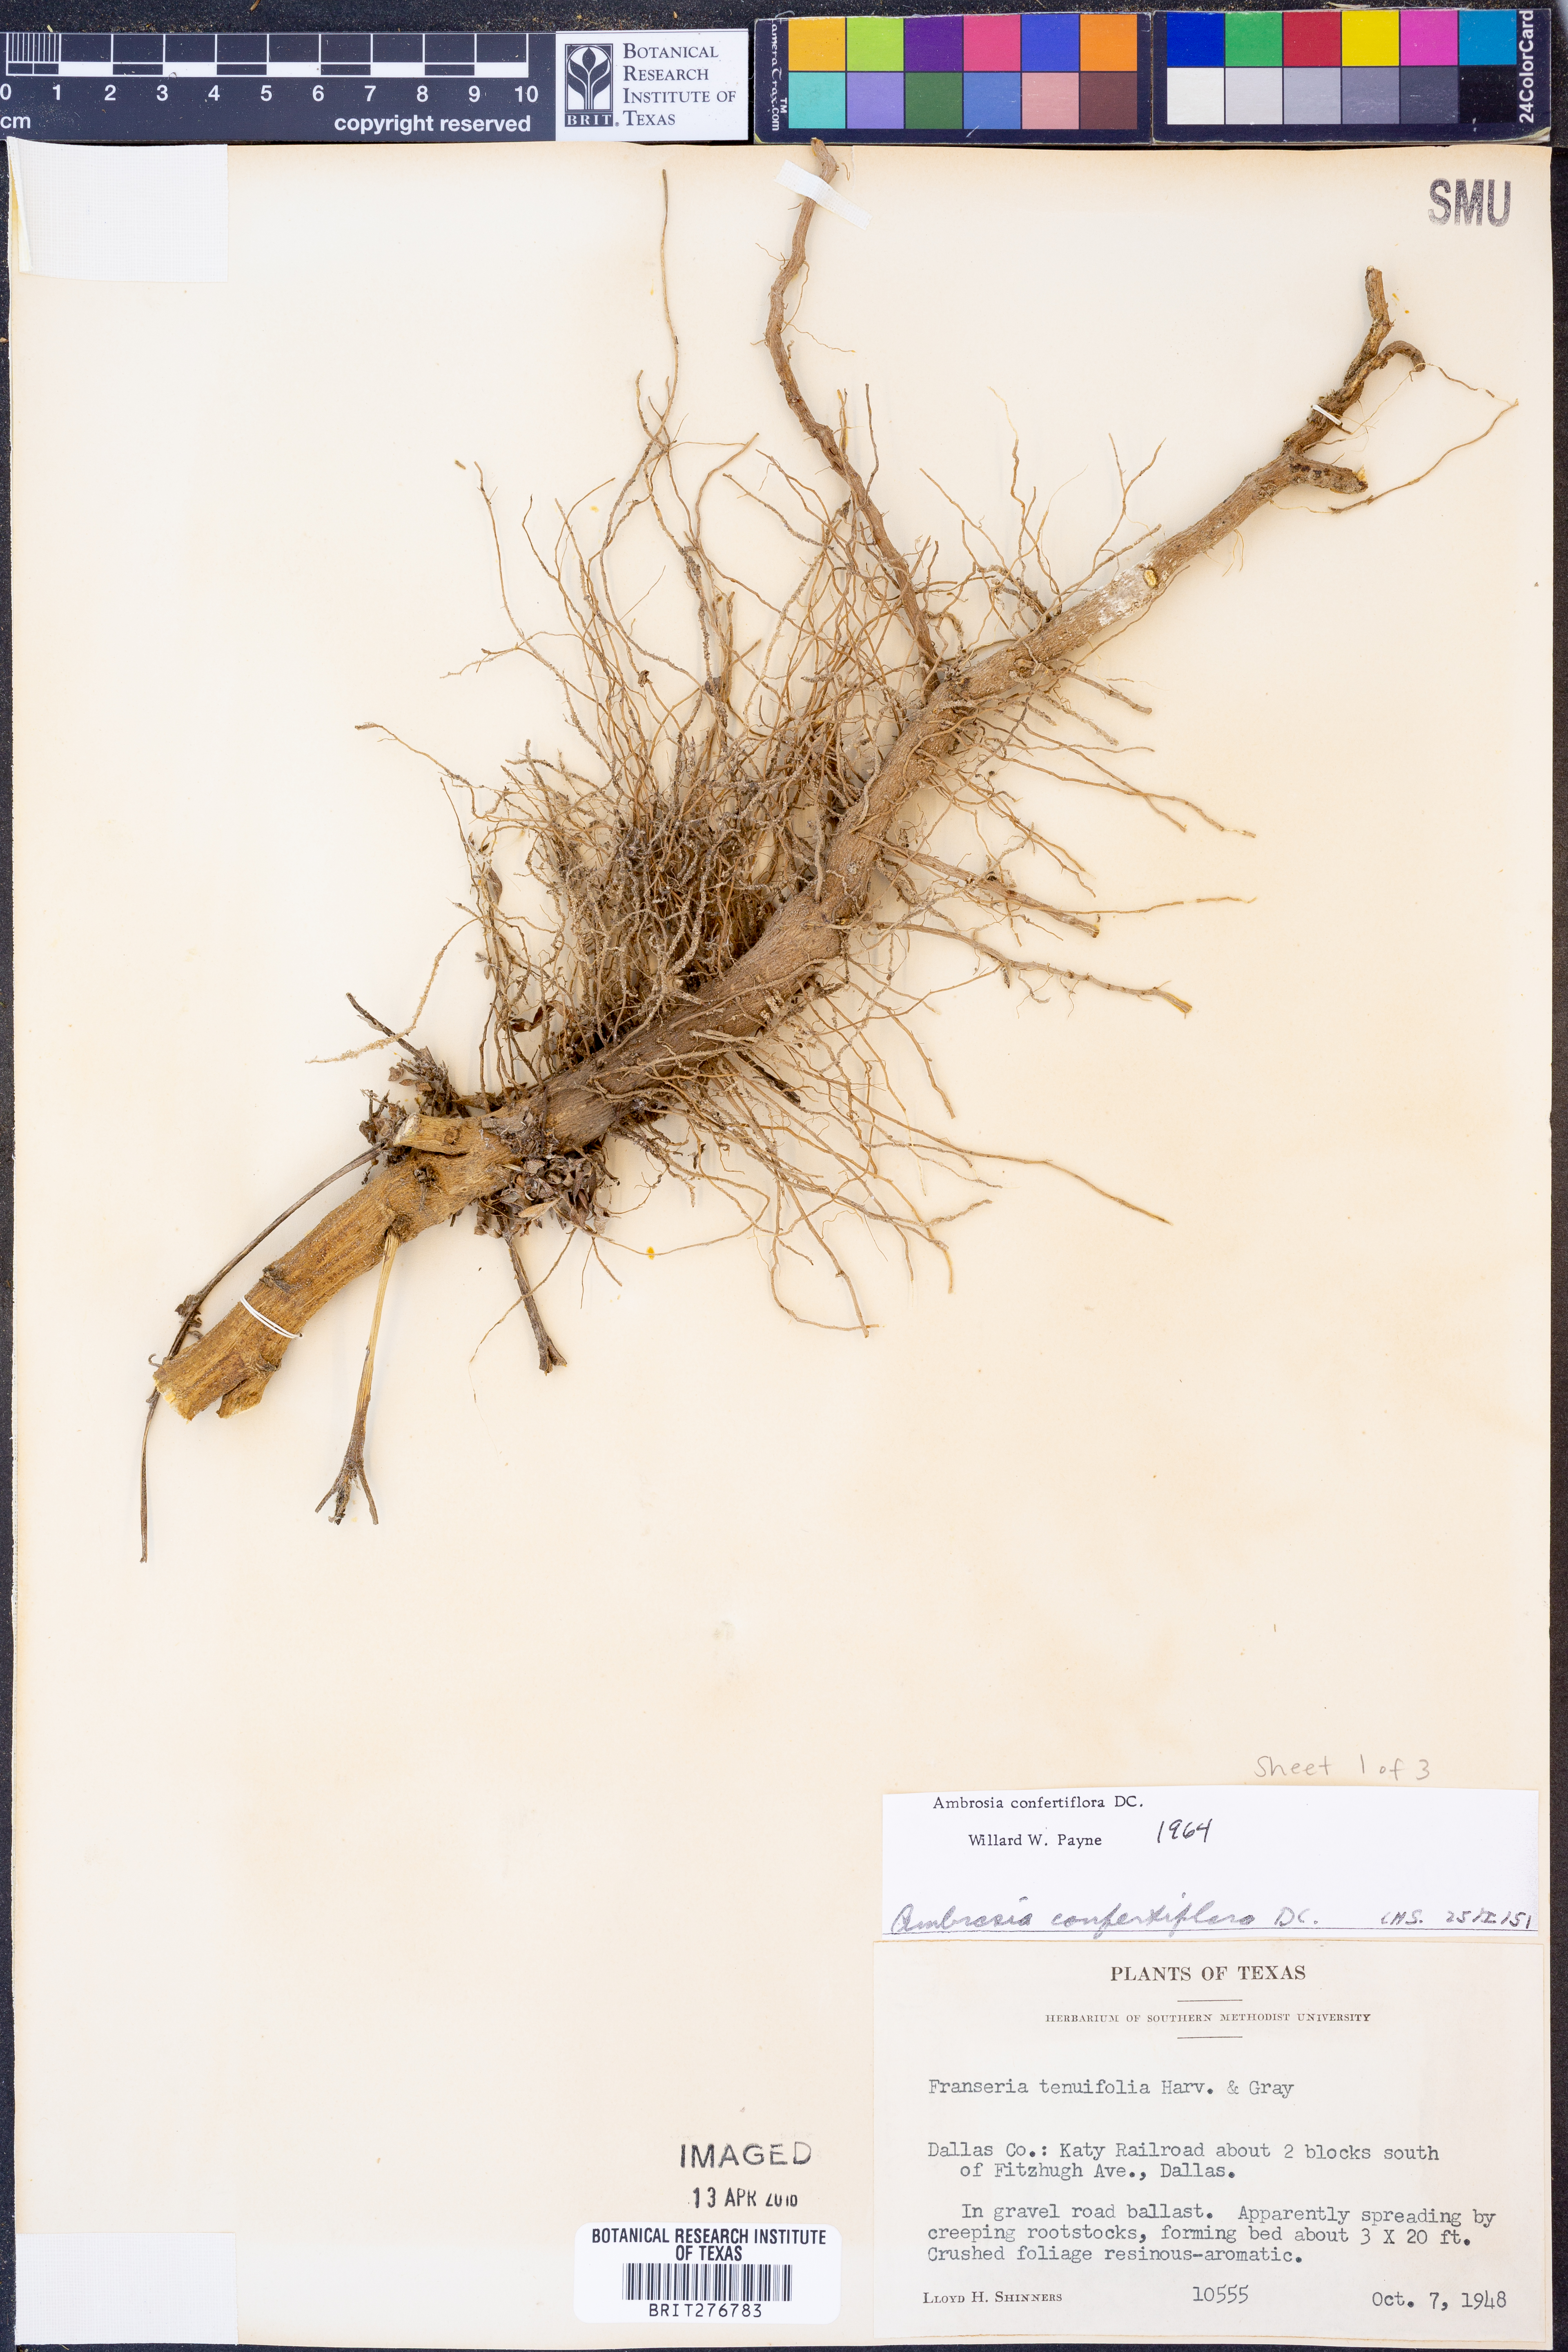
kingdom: Plantae
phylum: Tracheophyta
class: Magnoliopsida
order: Asterales
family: Asteraceae
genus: Ambrosia
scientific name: Ambrosia confertiflora
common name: Bur ragweed
